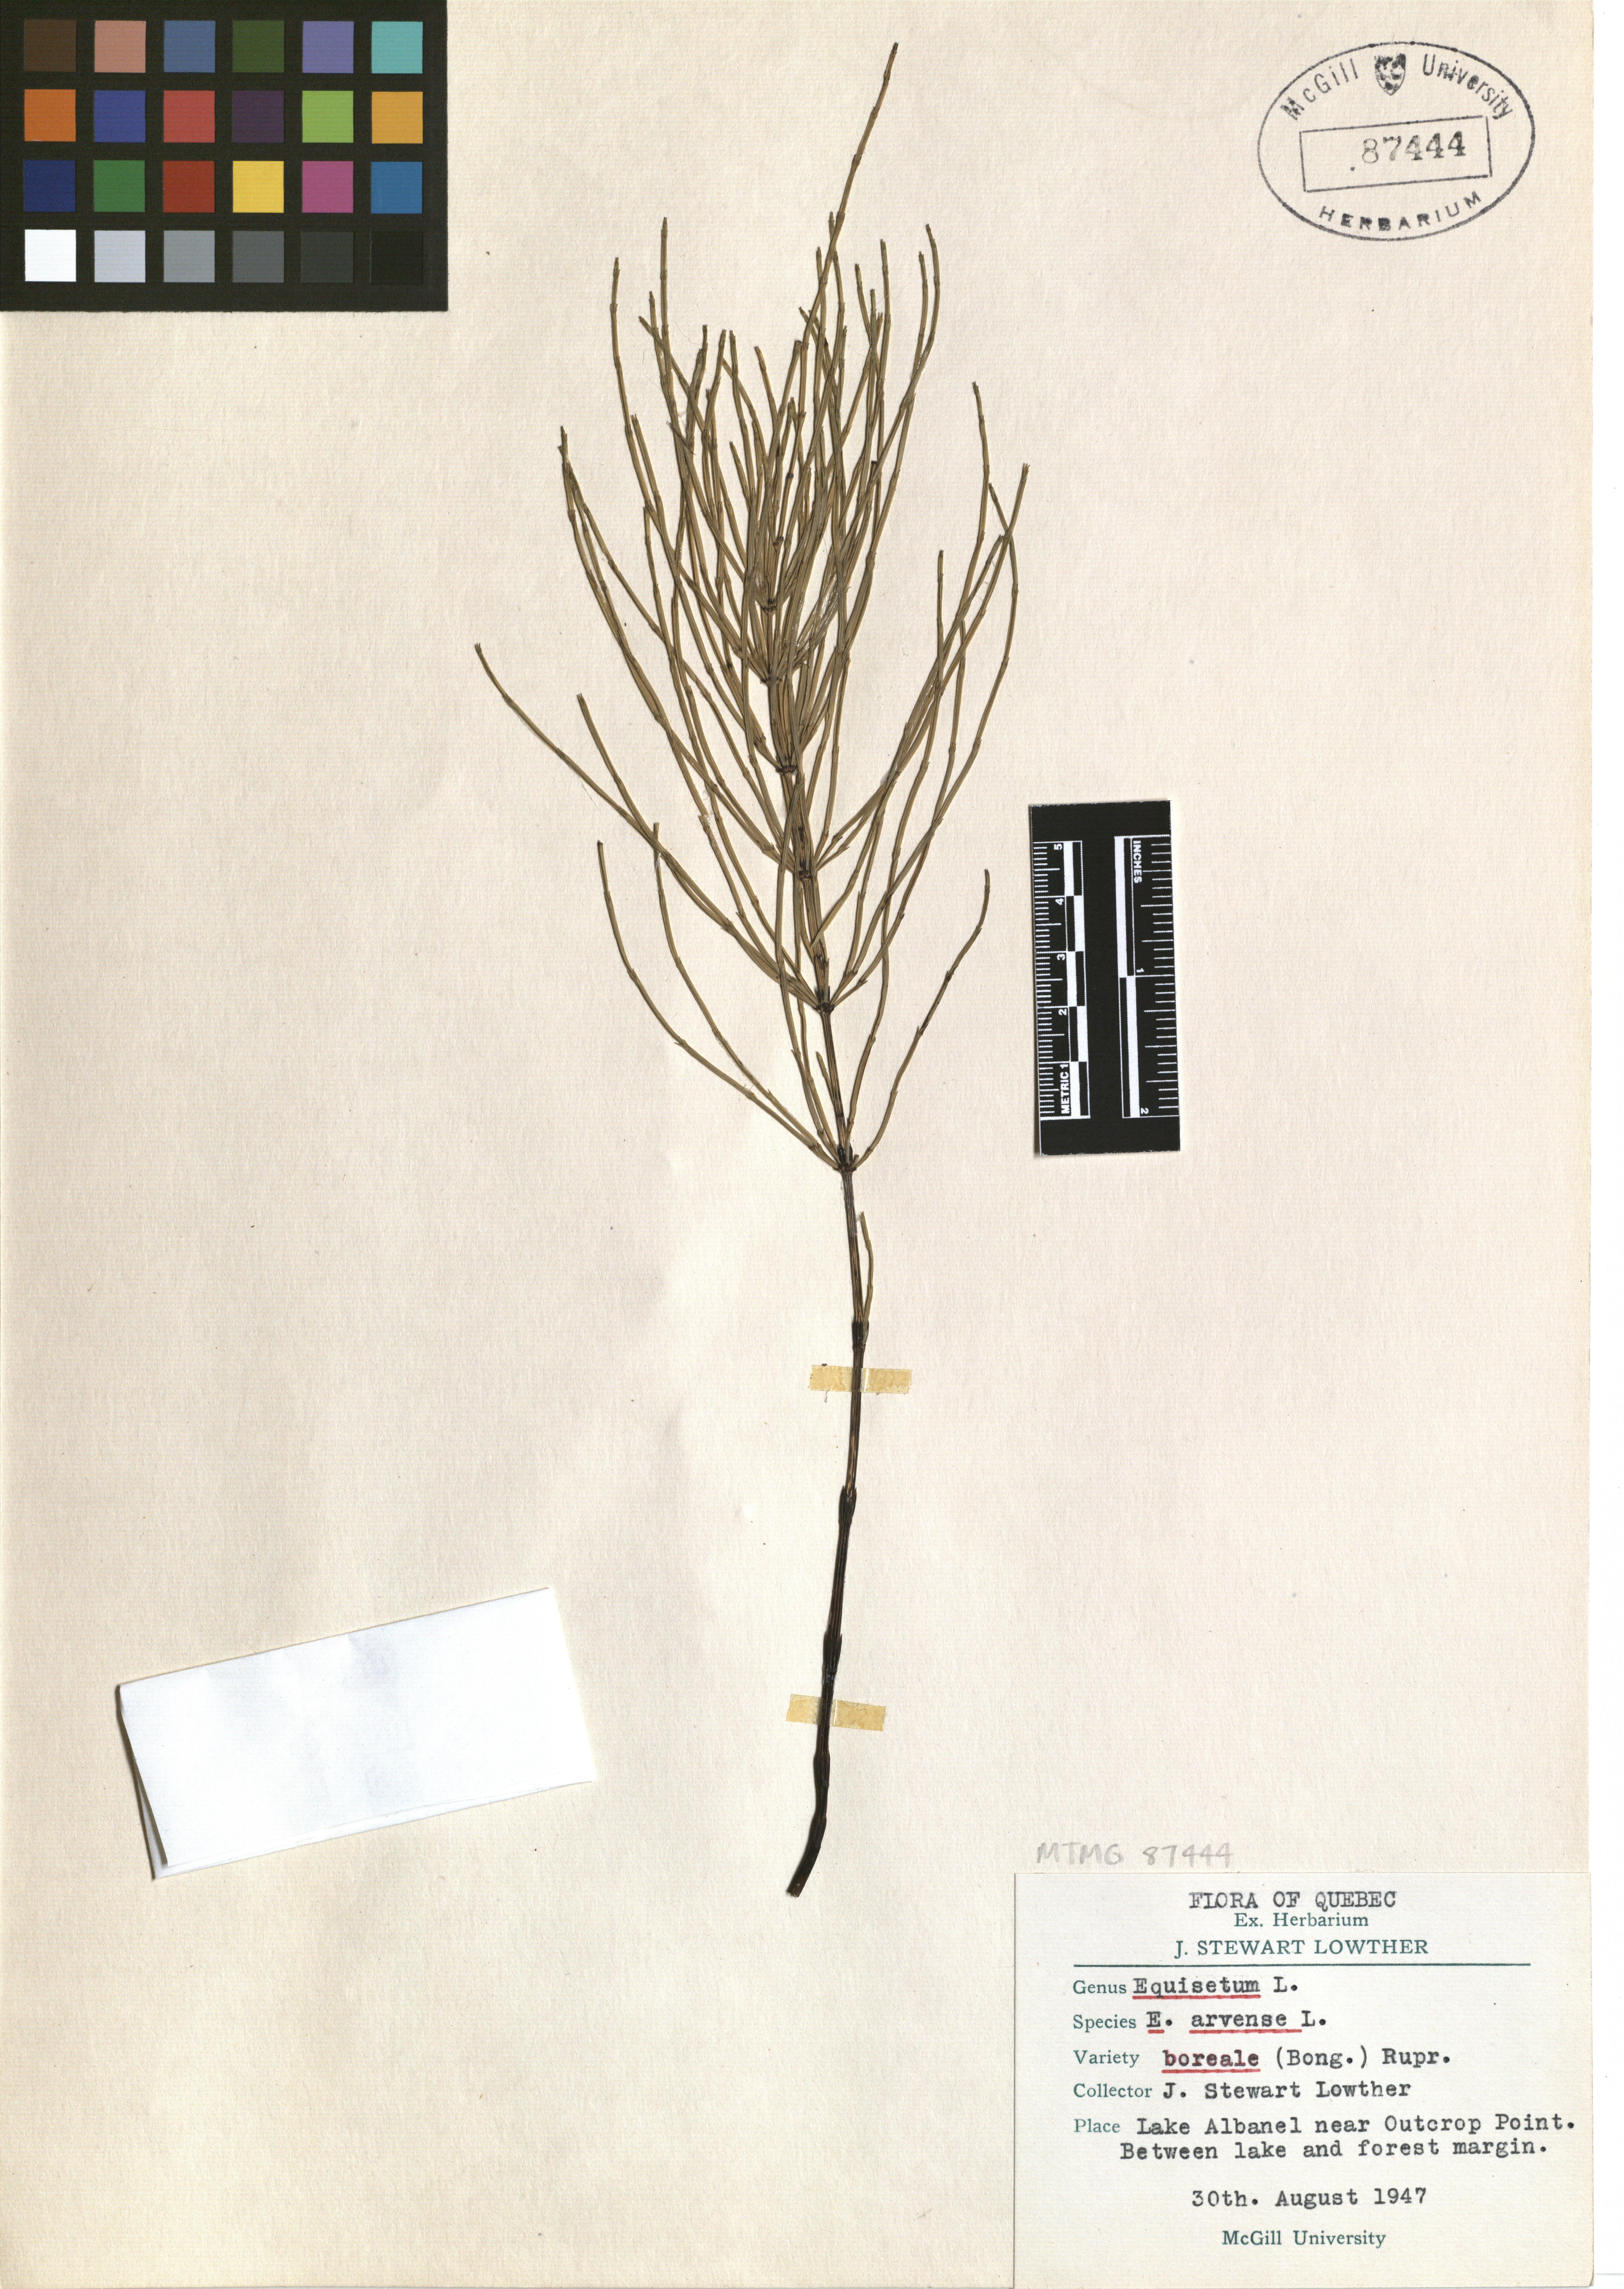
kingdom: Plantae
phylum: Tracheophyta
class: Polypodiopsida
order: Equisetales
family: Equisetaceae
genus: Equisetum
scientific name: Equisetum arvense
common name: Field horsetail
